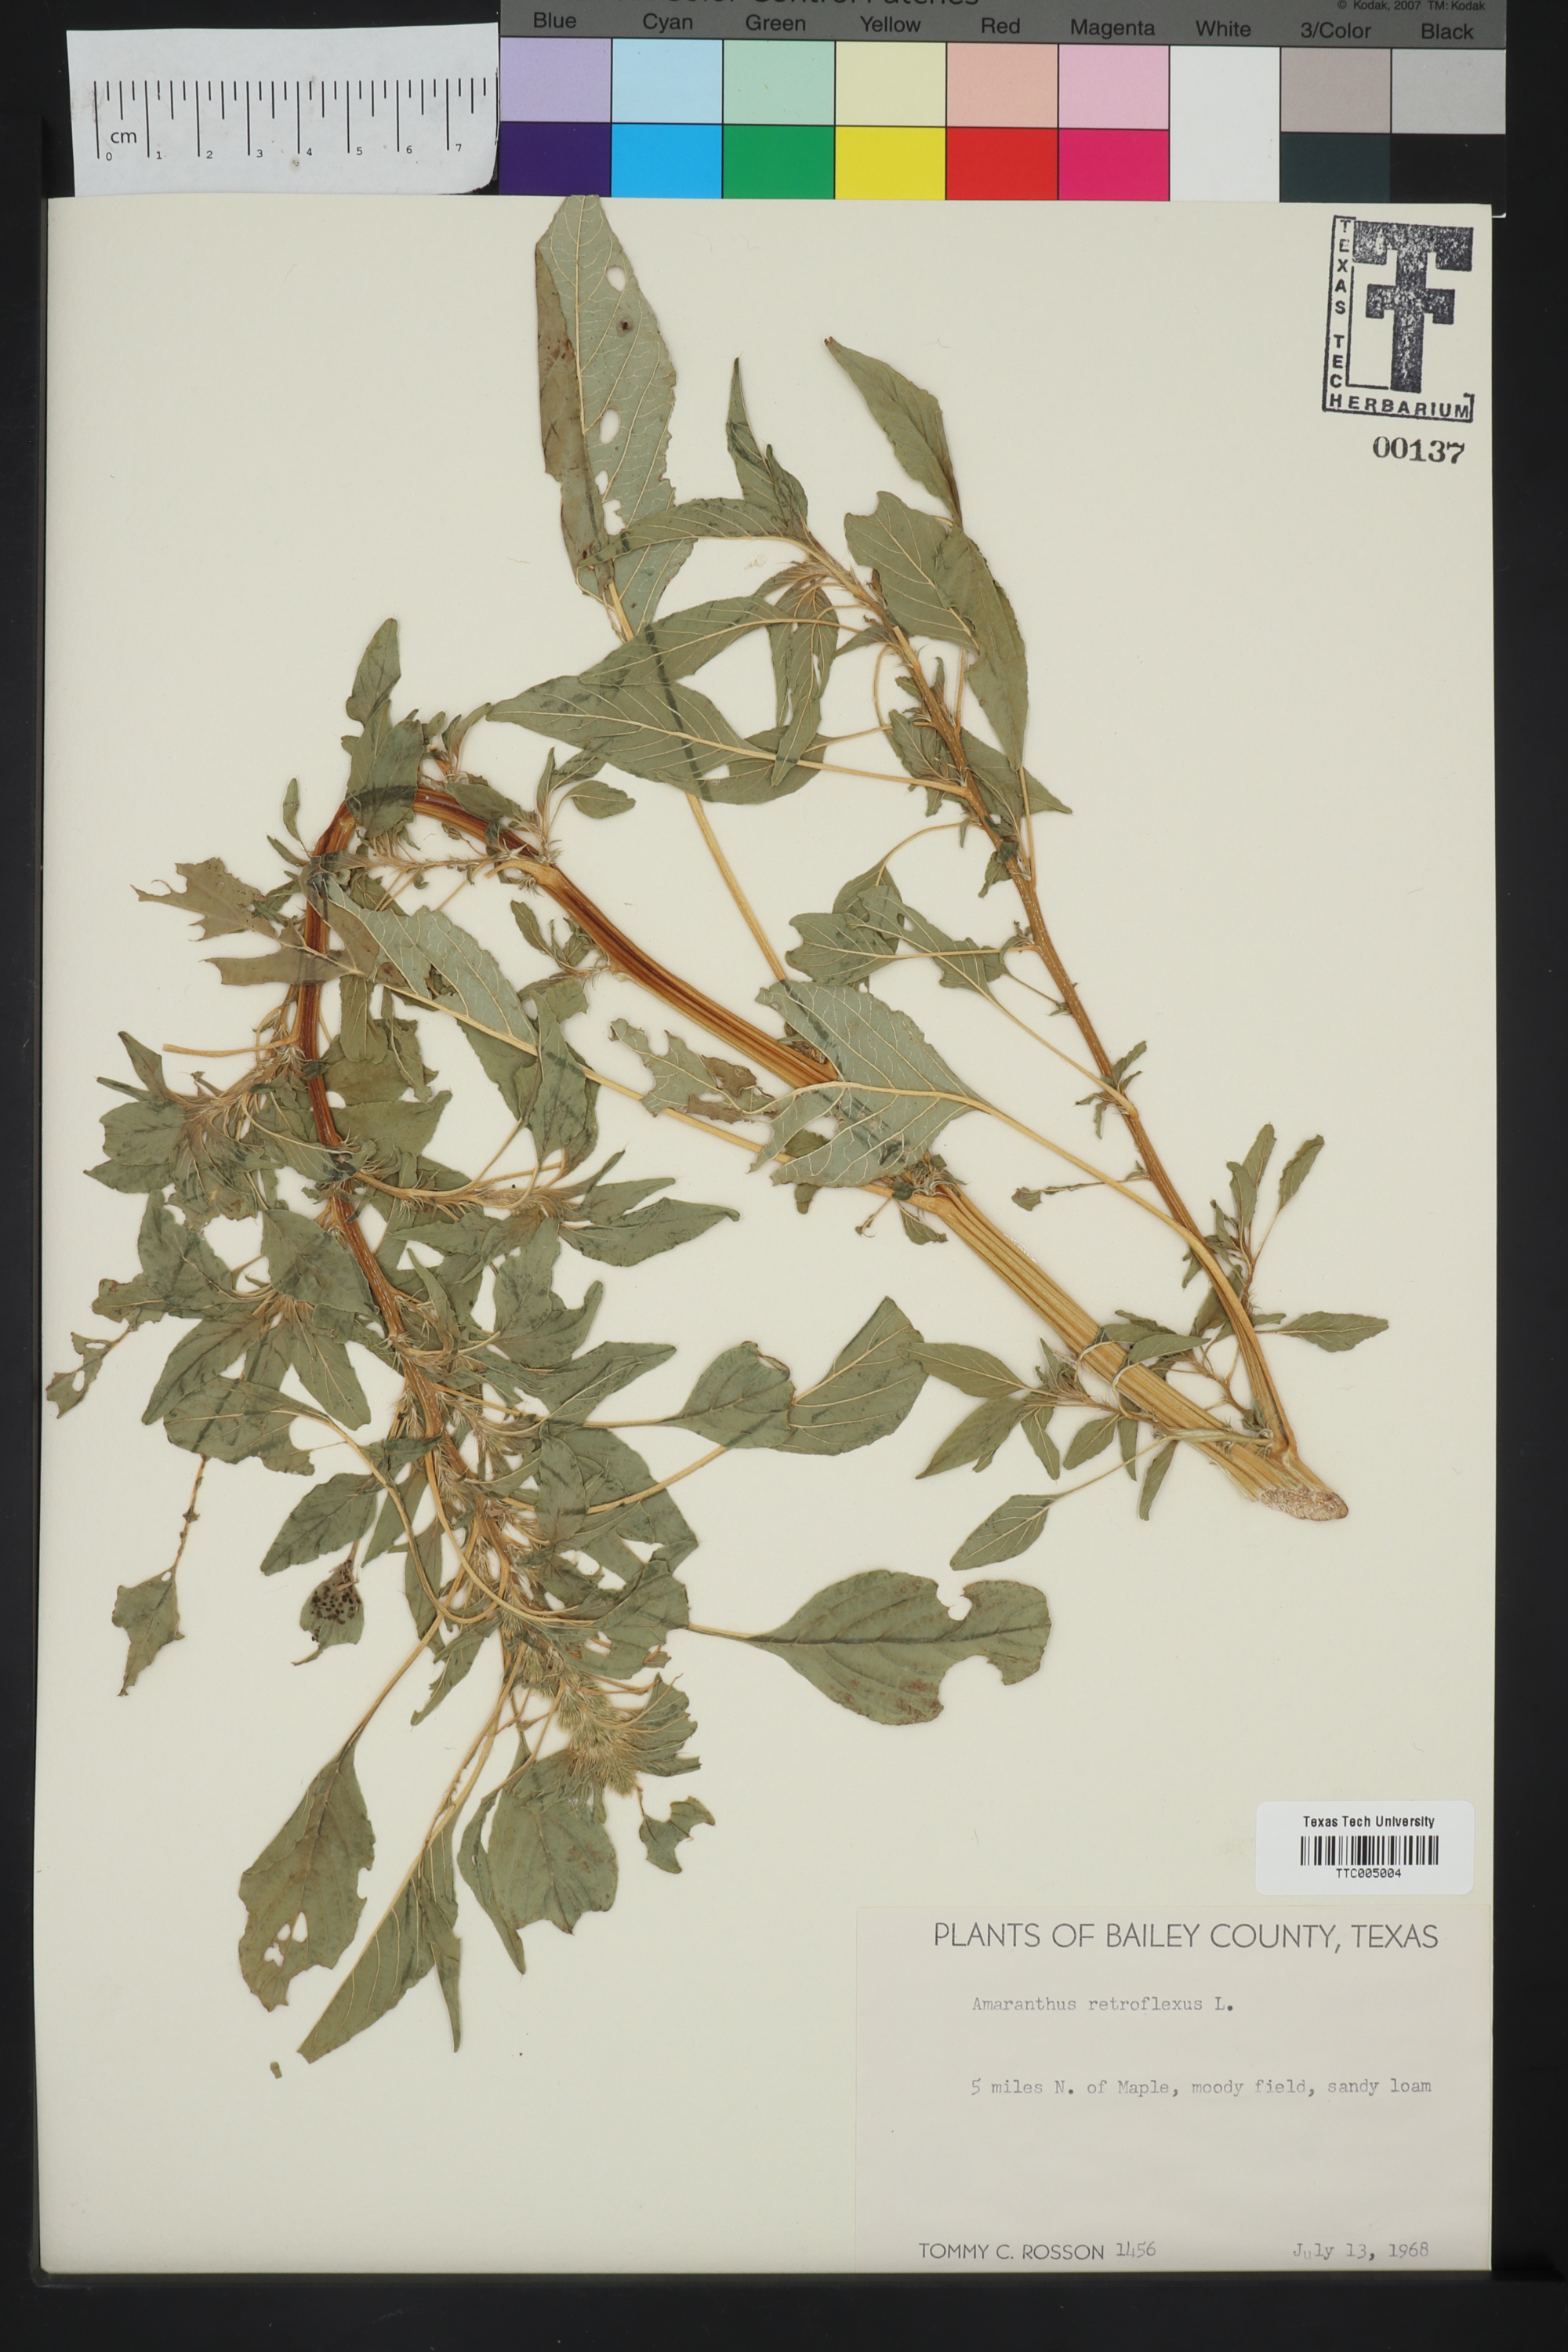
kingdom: Plantae
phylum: Tracheophyta
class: Magnoliopsida
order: Caryophyllales
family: Amaranthaceae
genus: Amaranthus
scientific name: Amaranthus retroflexus
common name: Redroot amaranth
